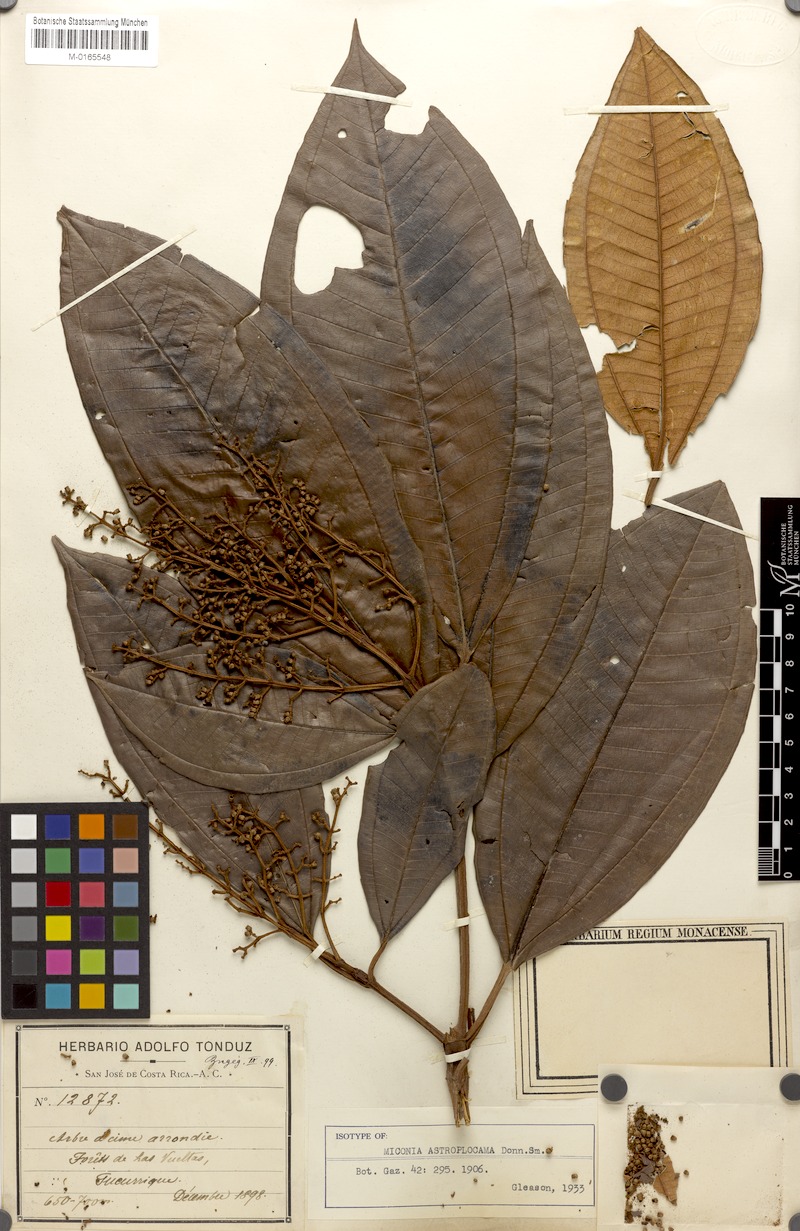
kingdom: Plantae
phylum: Tracheophyta
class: Magnoliopsida
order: Myrtales
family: Melastomataceae
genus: Miconia
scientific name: Miconia astroplocama
